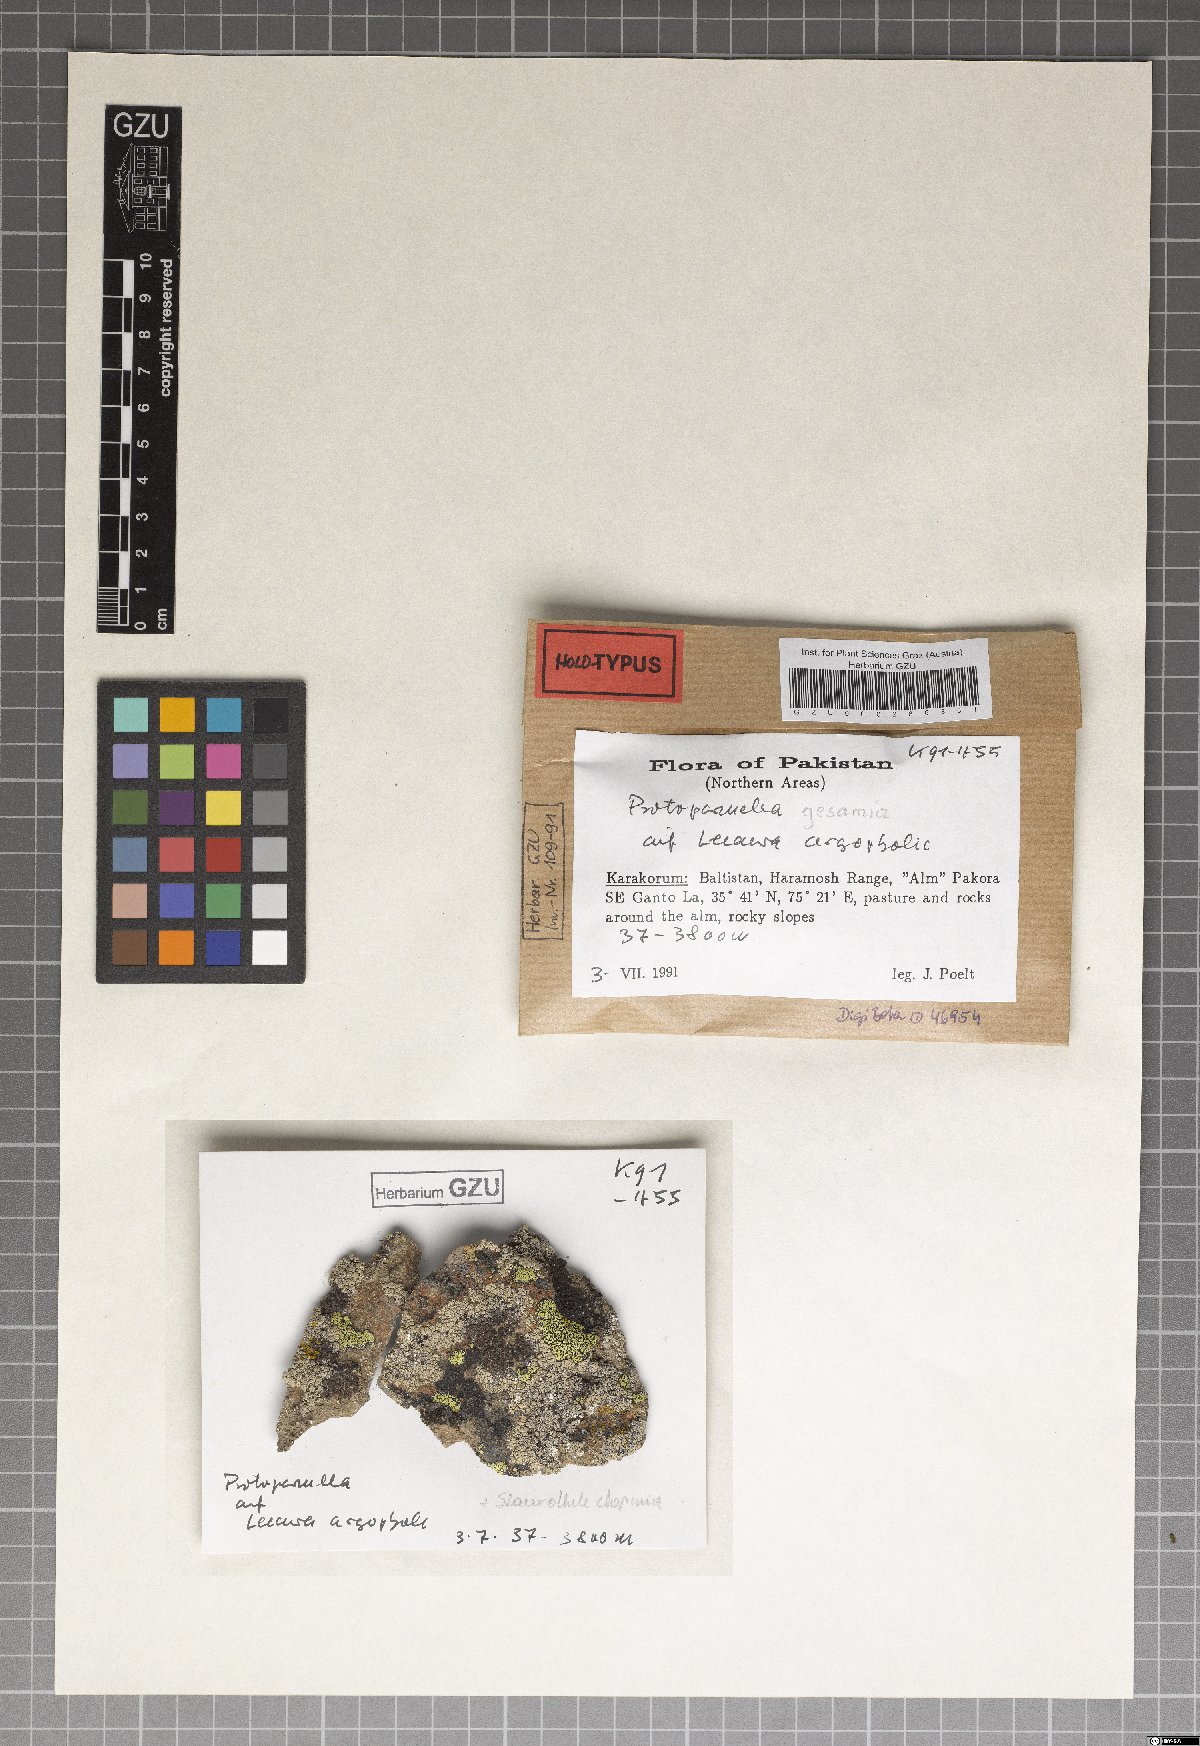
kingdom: Fungi
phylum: Ascomycota
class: Lecanoromycetes
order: Lecanorales
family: Parmeliaceae
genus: Protoparmelia
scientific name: Protoparmelia gesamia
